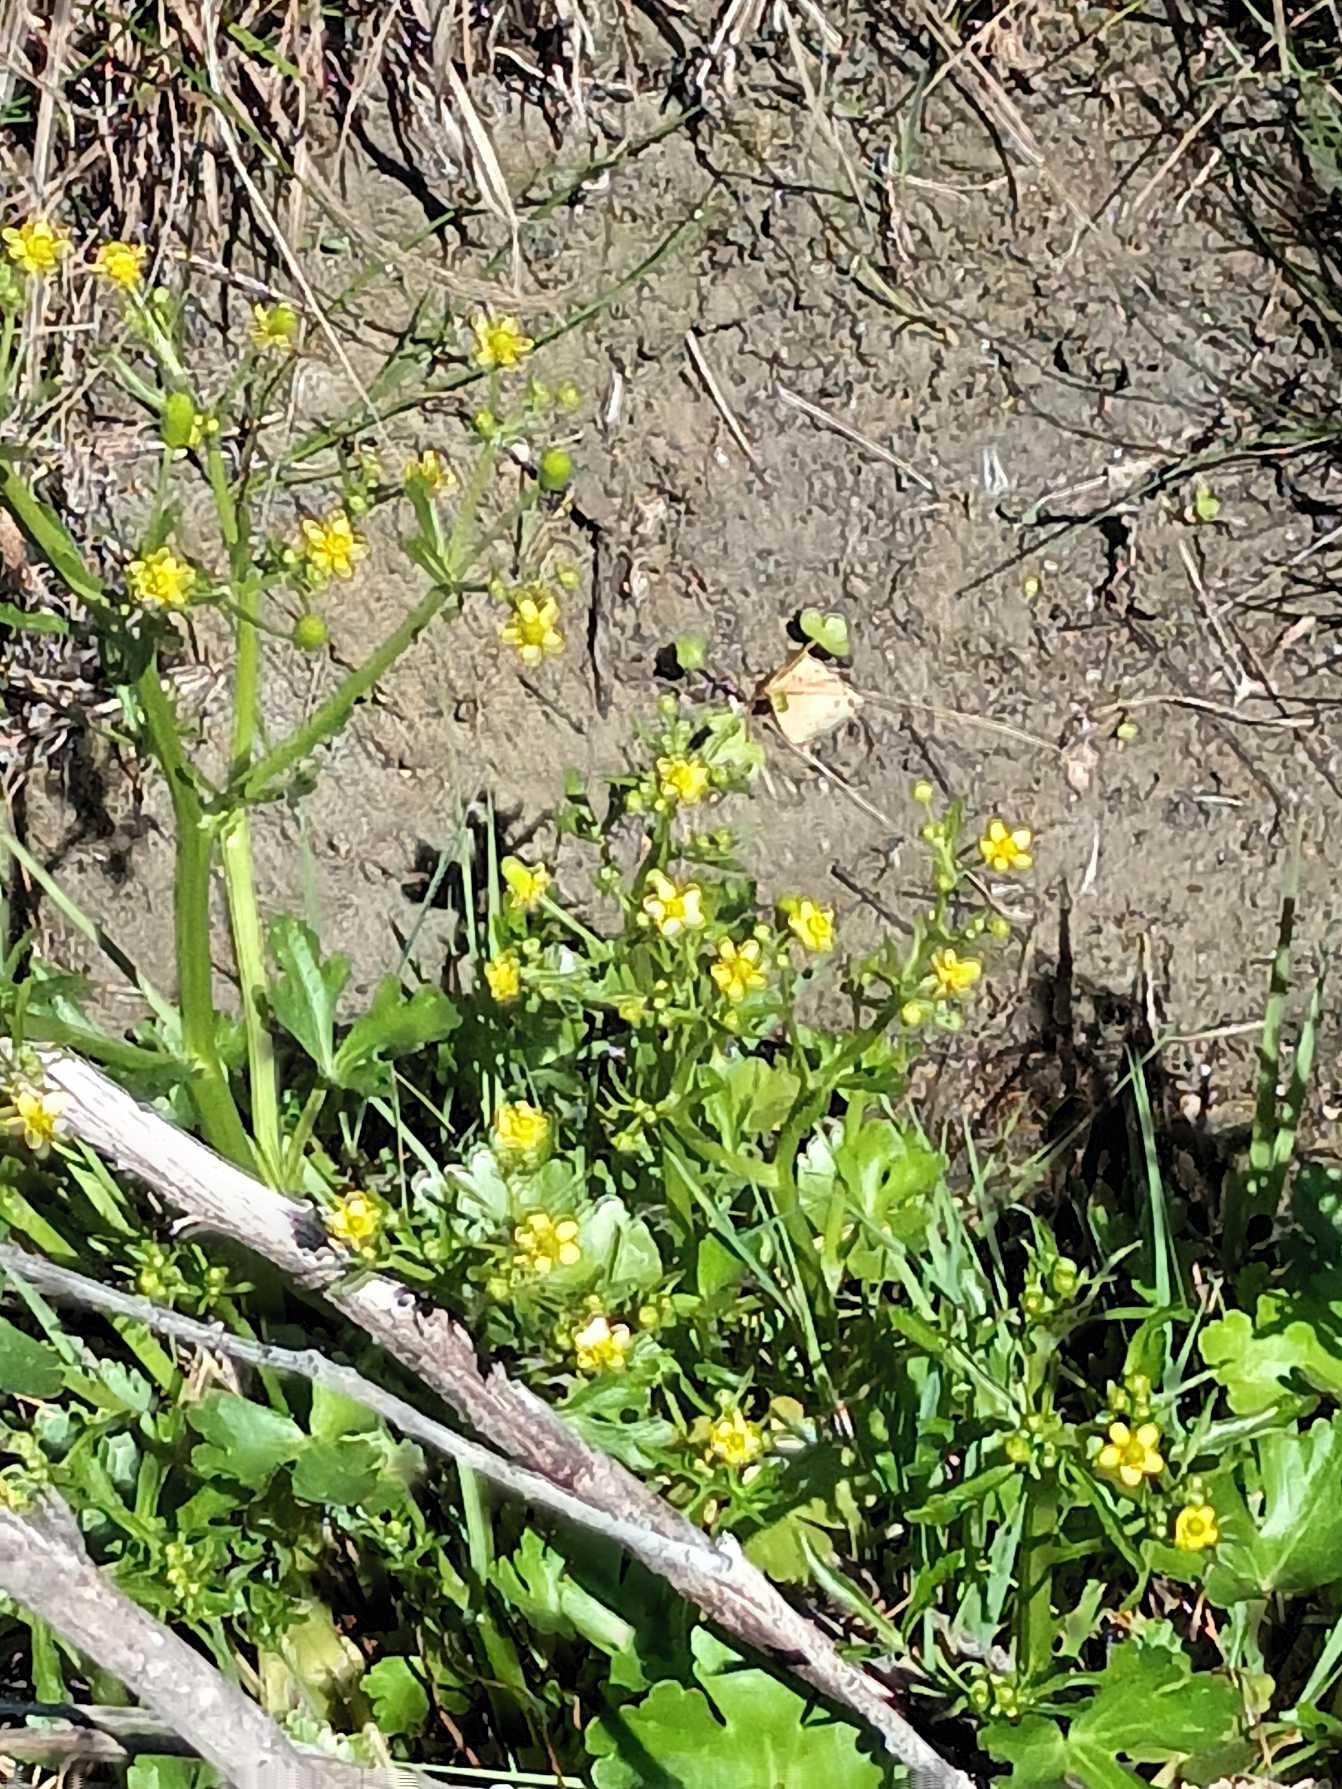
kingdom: Plantae
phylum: Tracheophyta
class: Magnoliopsida
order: Ranunculales
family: Ranunculaceae
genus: Ranunculus
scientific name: Ranunculus sceleratus
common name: Tigger-ranunkel
